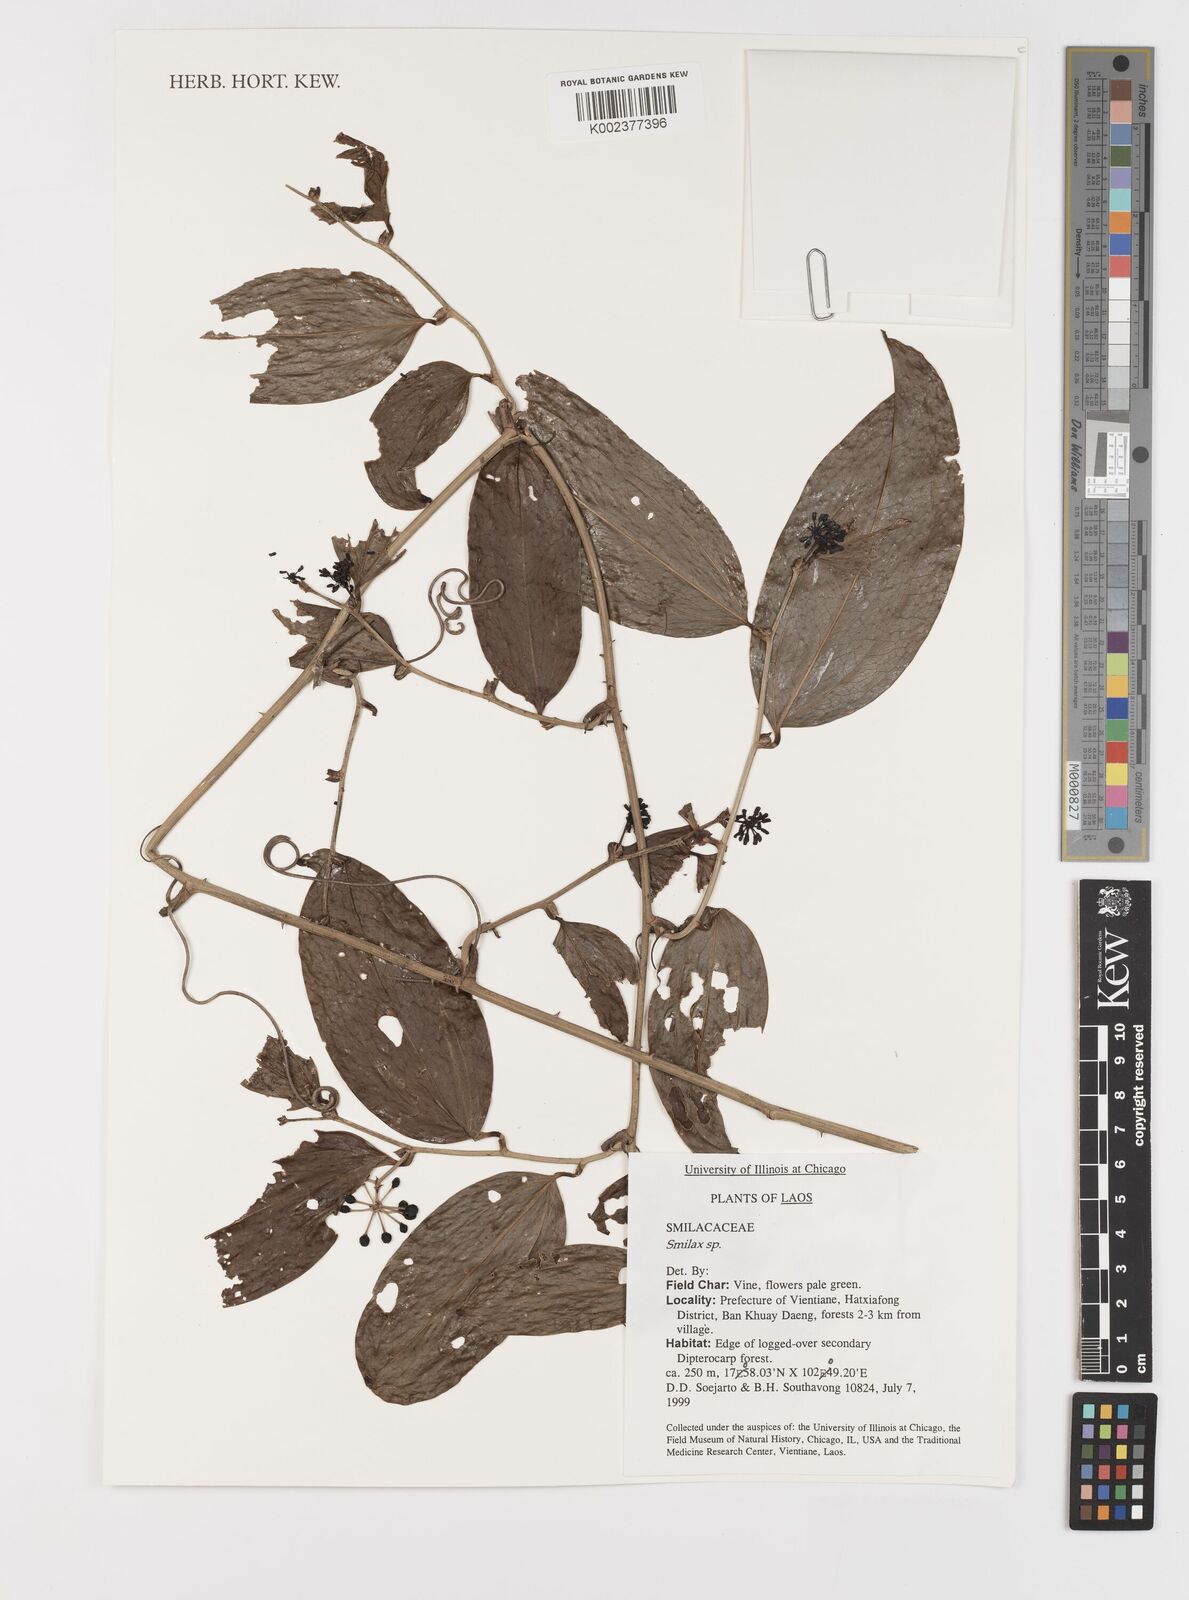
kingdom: Plantae
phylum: Tracheophyta
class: Liliopsida
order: Liliales
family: Smilacaceae
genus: Smilax
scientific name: Smilax
